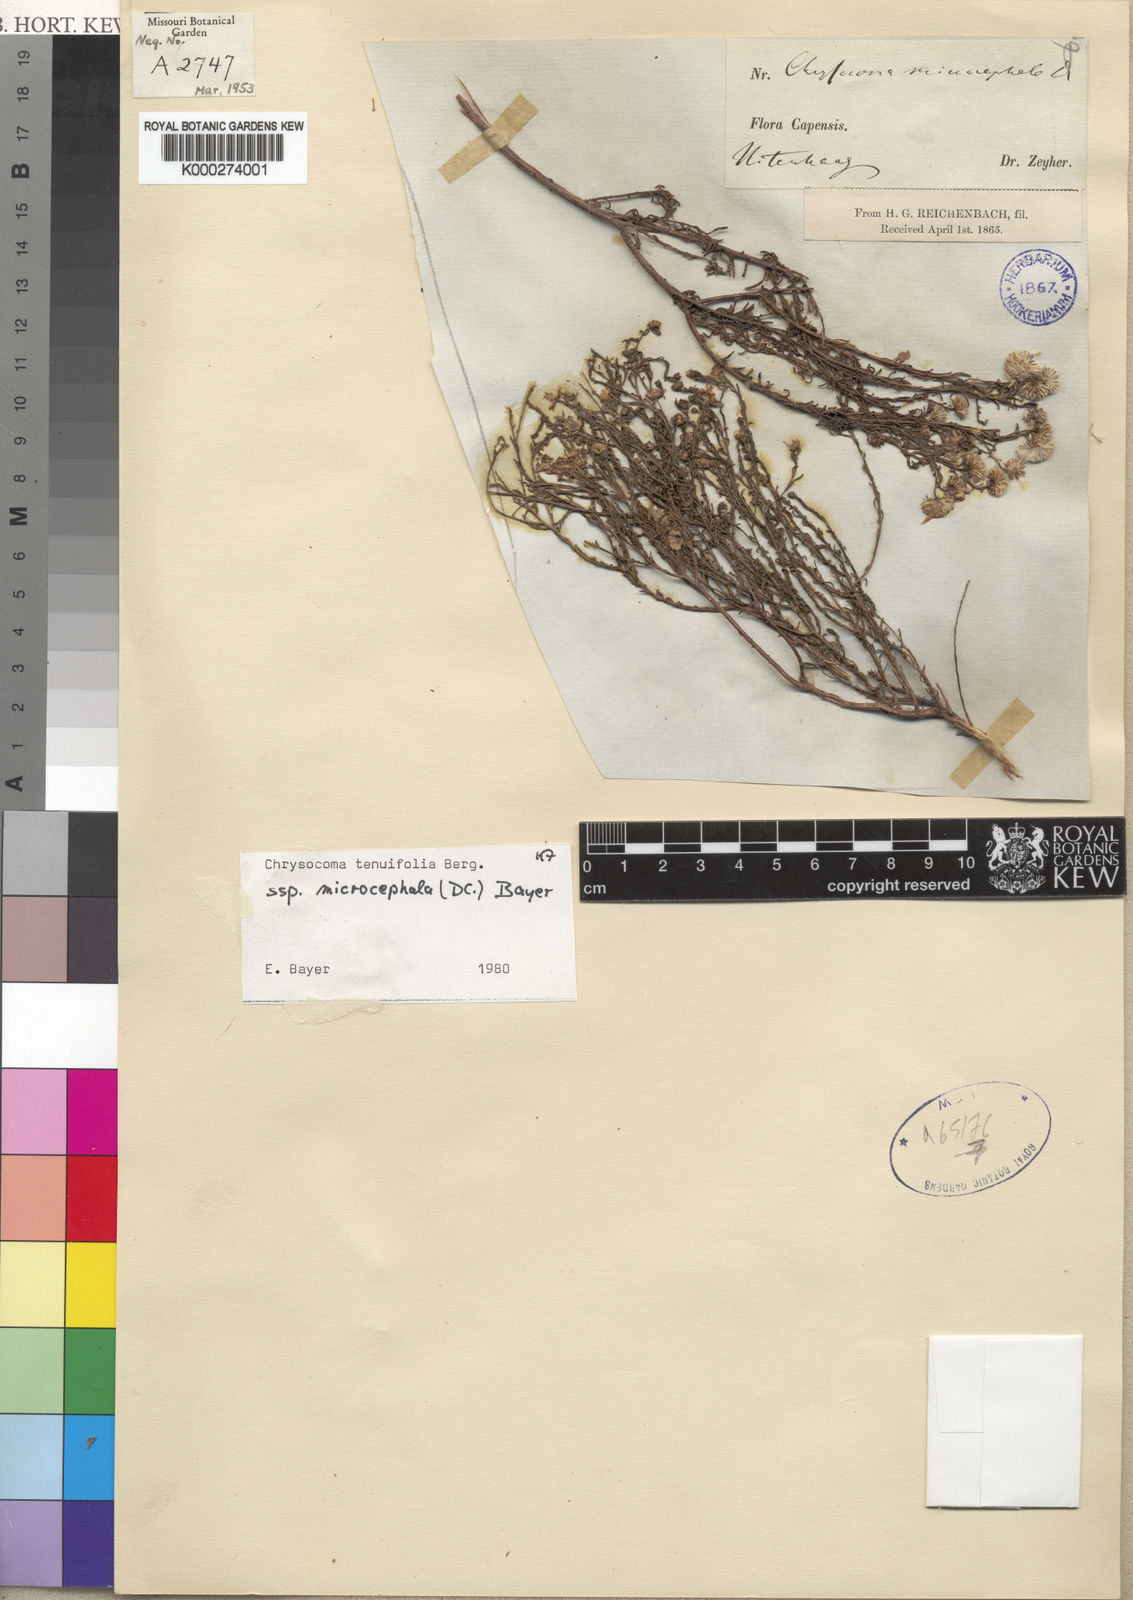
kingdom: Plantae
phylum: Tracheophyta
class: Magnoliopsida
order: Asterales
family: Asteraceae
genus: Chrysocoma
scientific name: Chrysocoma ciliata
